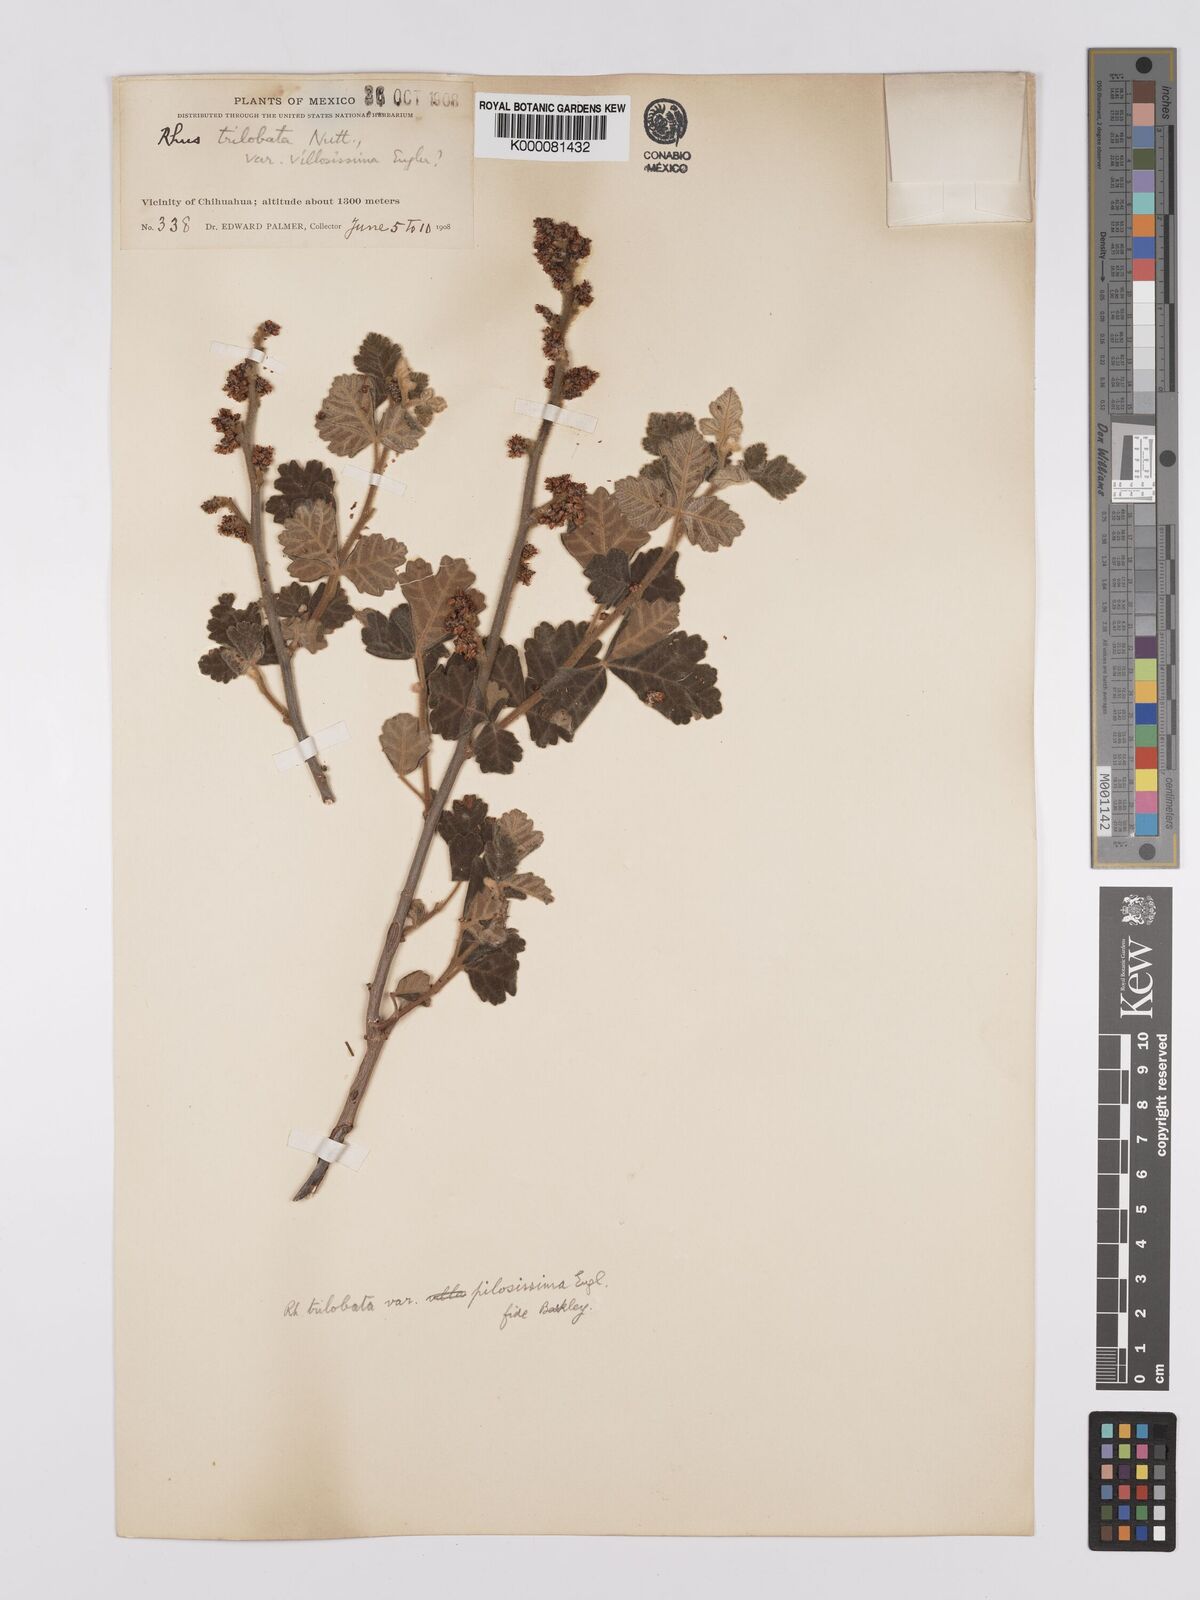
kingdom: Plantae
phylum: Tracheophyta
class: Magnoliopsida
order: Sapindales
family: Anacardiaceae
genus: Rhus
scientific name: Rhus trilobata
